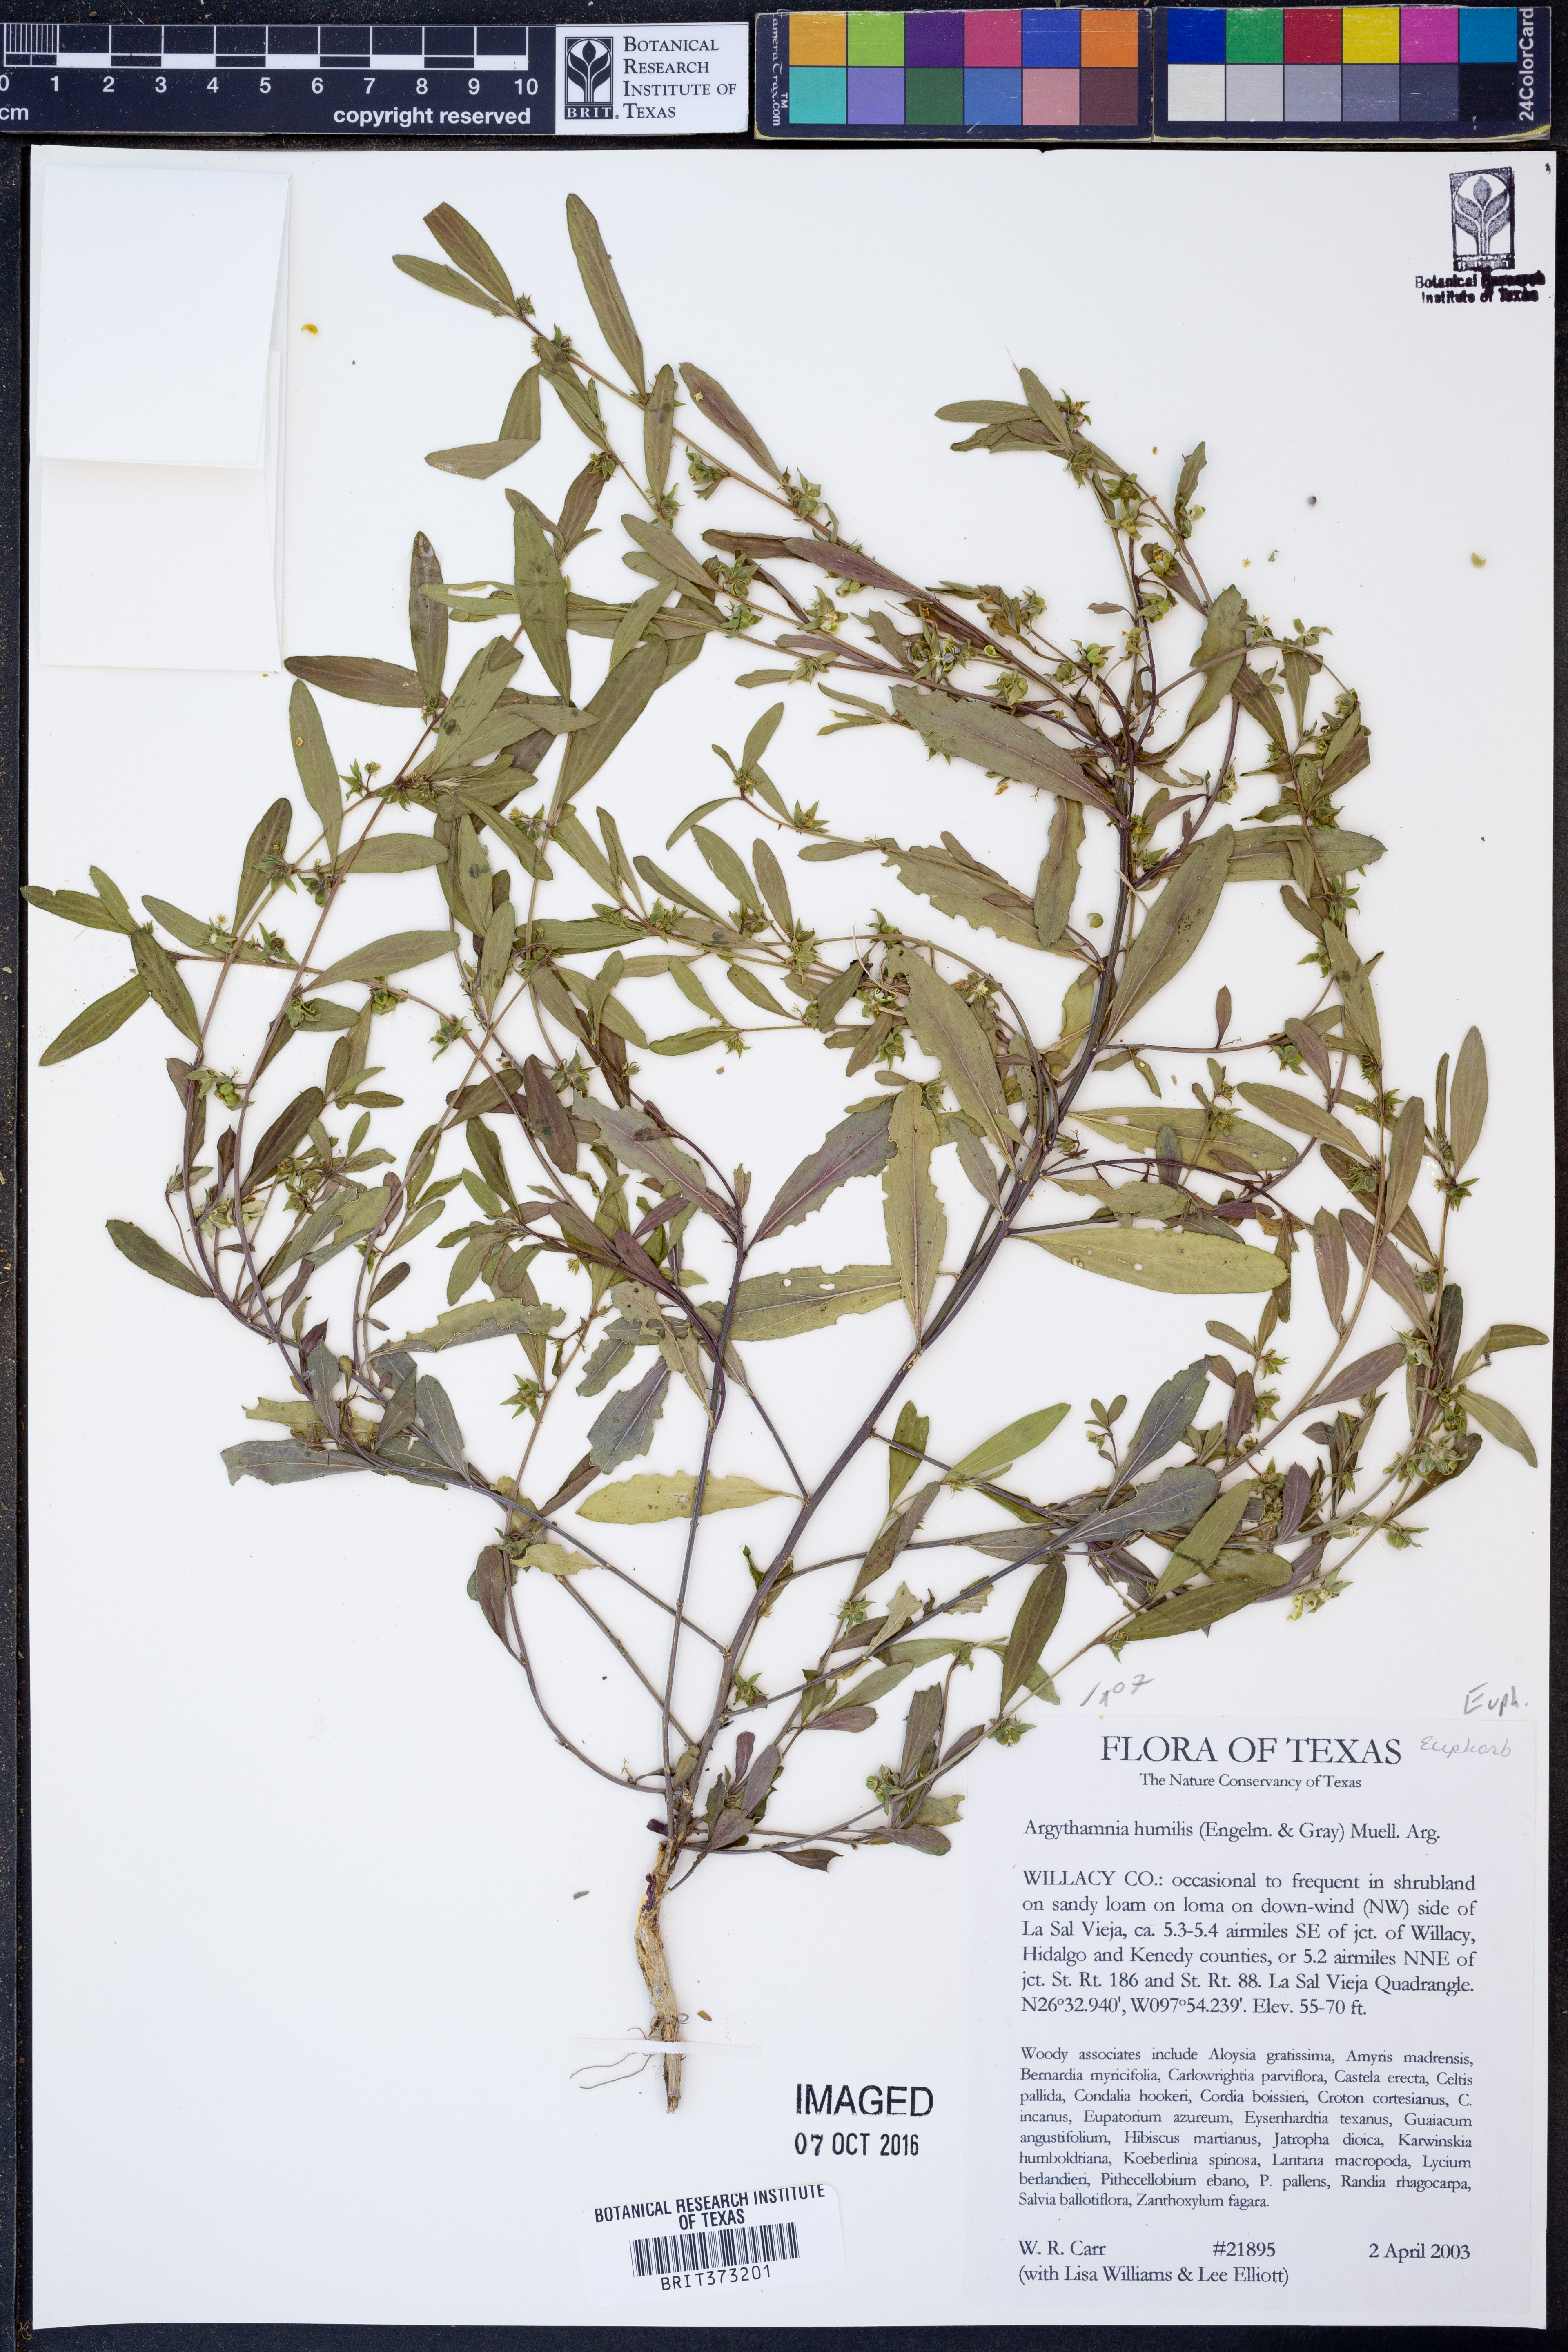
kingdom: Plantae
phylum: Tracheophyta
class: Magnoliopsida
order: Malpighiales
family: Euphorbiaceae
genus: Ditaxis
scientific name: Ditaxis humilis
